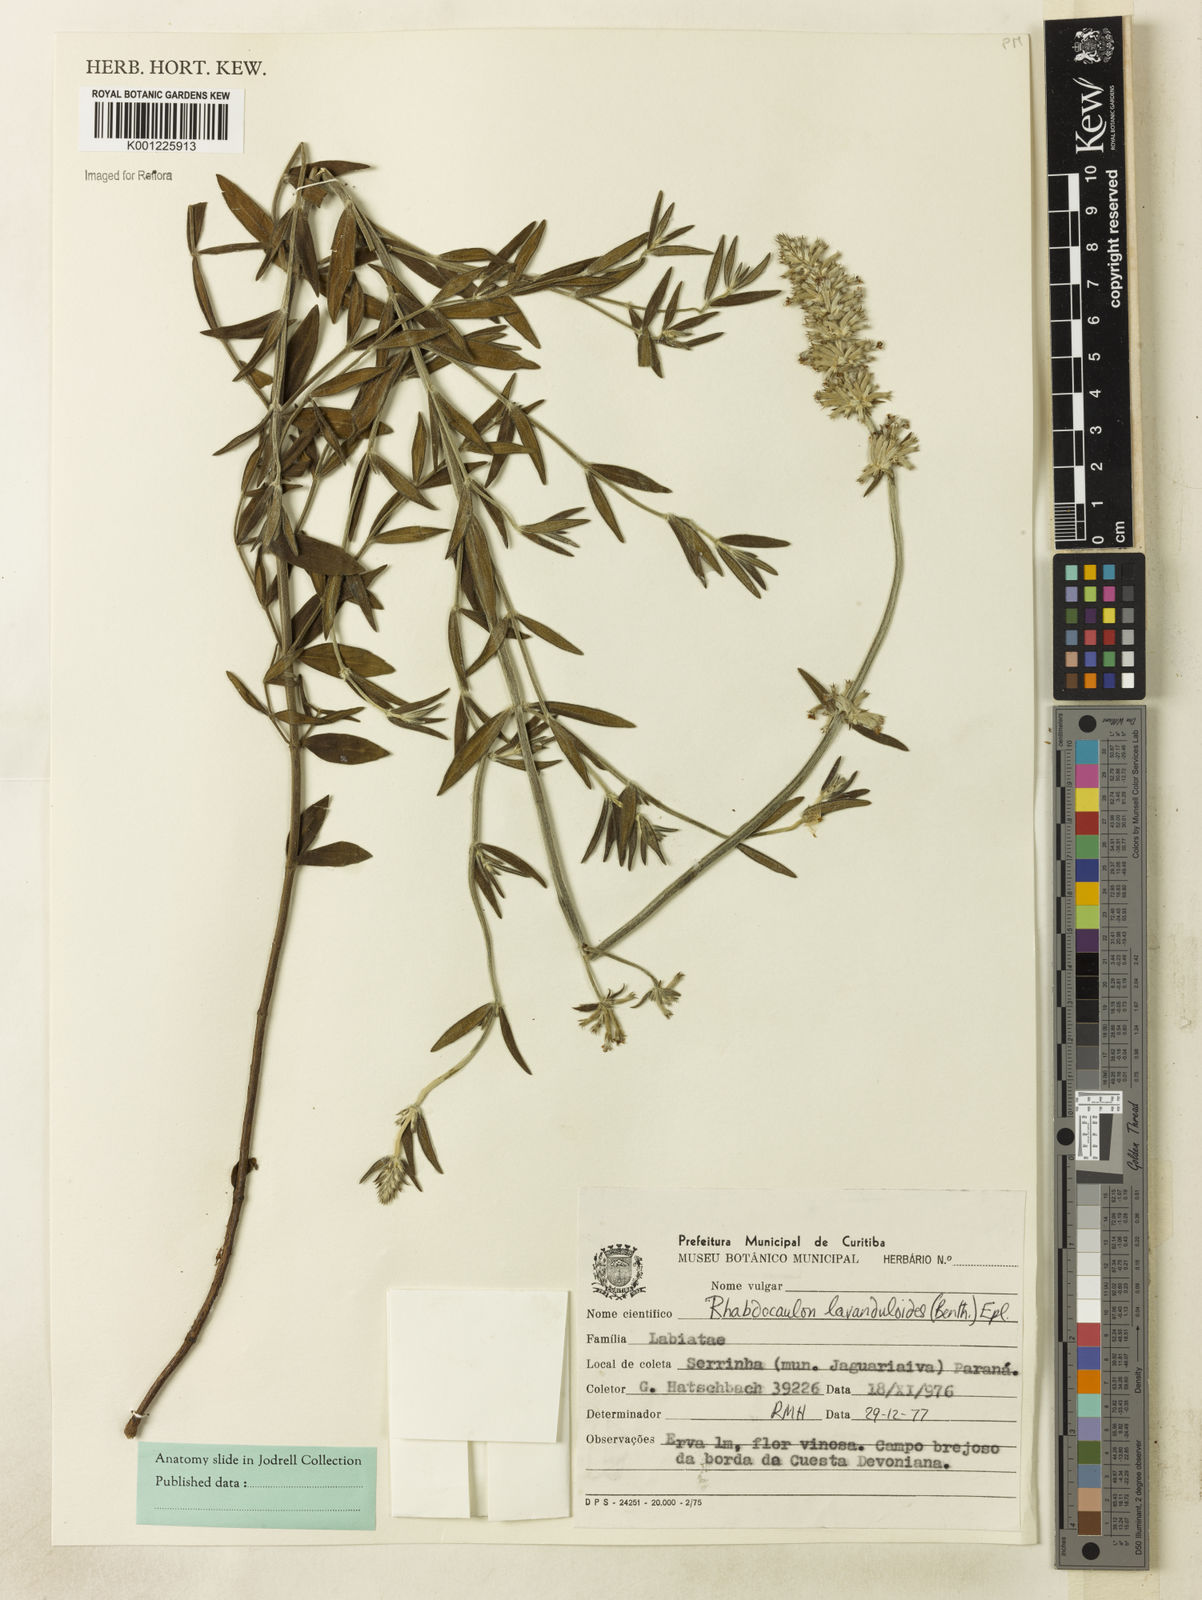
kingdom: Plantae
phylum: Tracheophyta
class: Magnoliopsida
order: Lamiales
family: Lamiaceae
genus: Rhabdocaulon
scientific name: Rhabdocaulon lavanduloides
